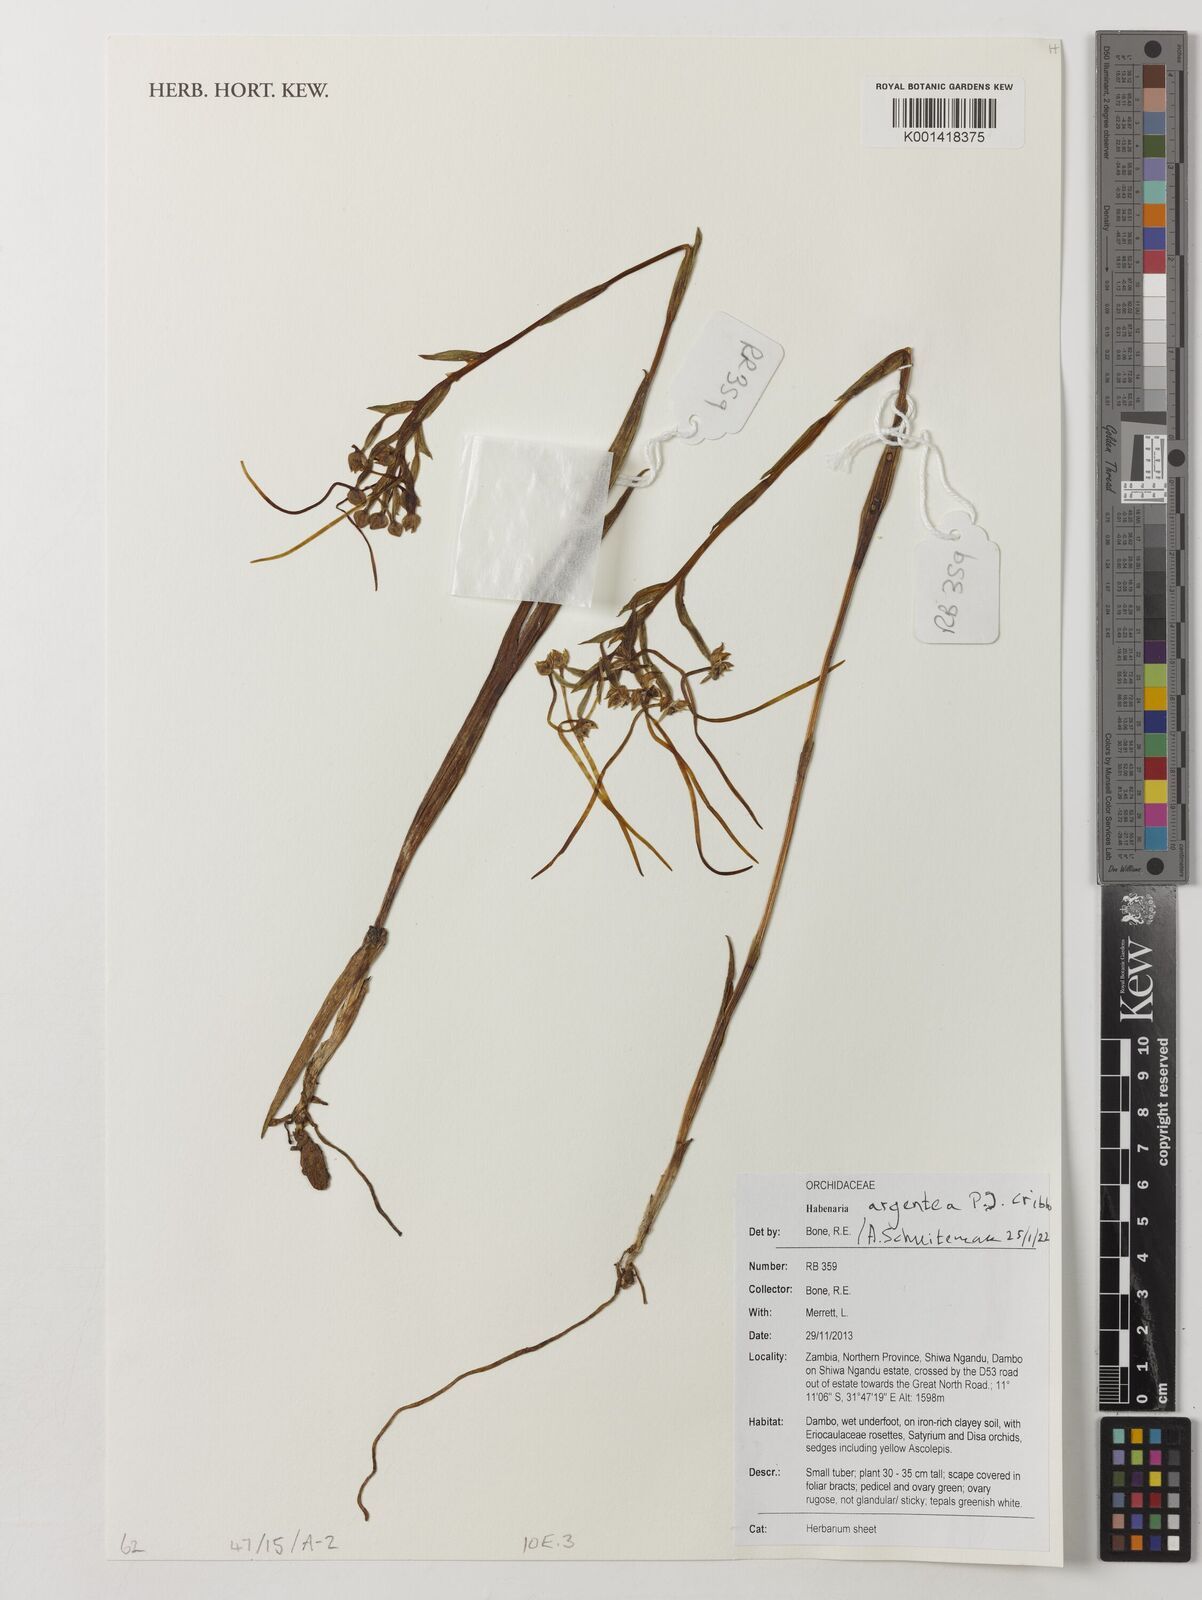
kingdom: Plantae
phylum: Tracheophyta
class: Liliopsida
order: Asparagales
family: Orchidaceae
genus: Habenaria
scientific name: Habenaria argentea
